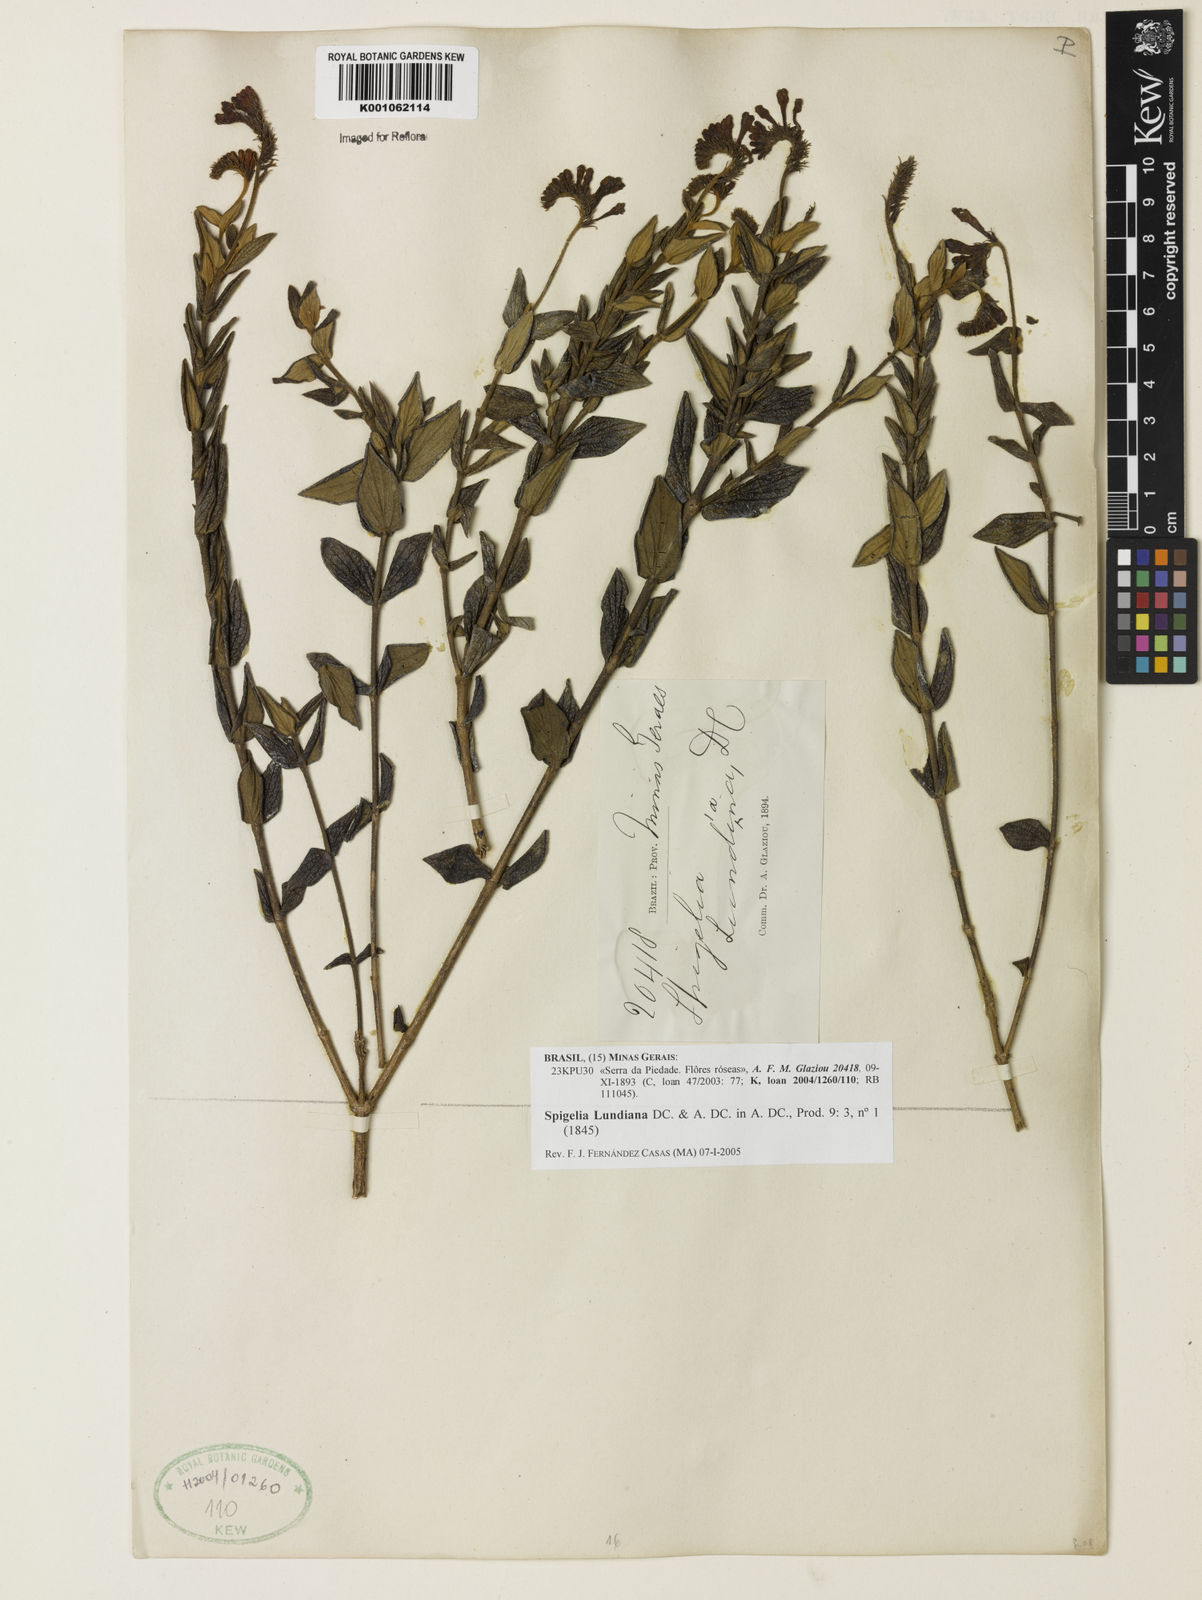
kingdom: Plantae
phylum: Tracheophyta
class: Magnoliopsida
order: Gentianales
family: Loganiaceae
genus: Spigelia
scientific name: Spigelia
